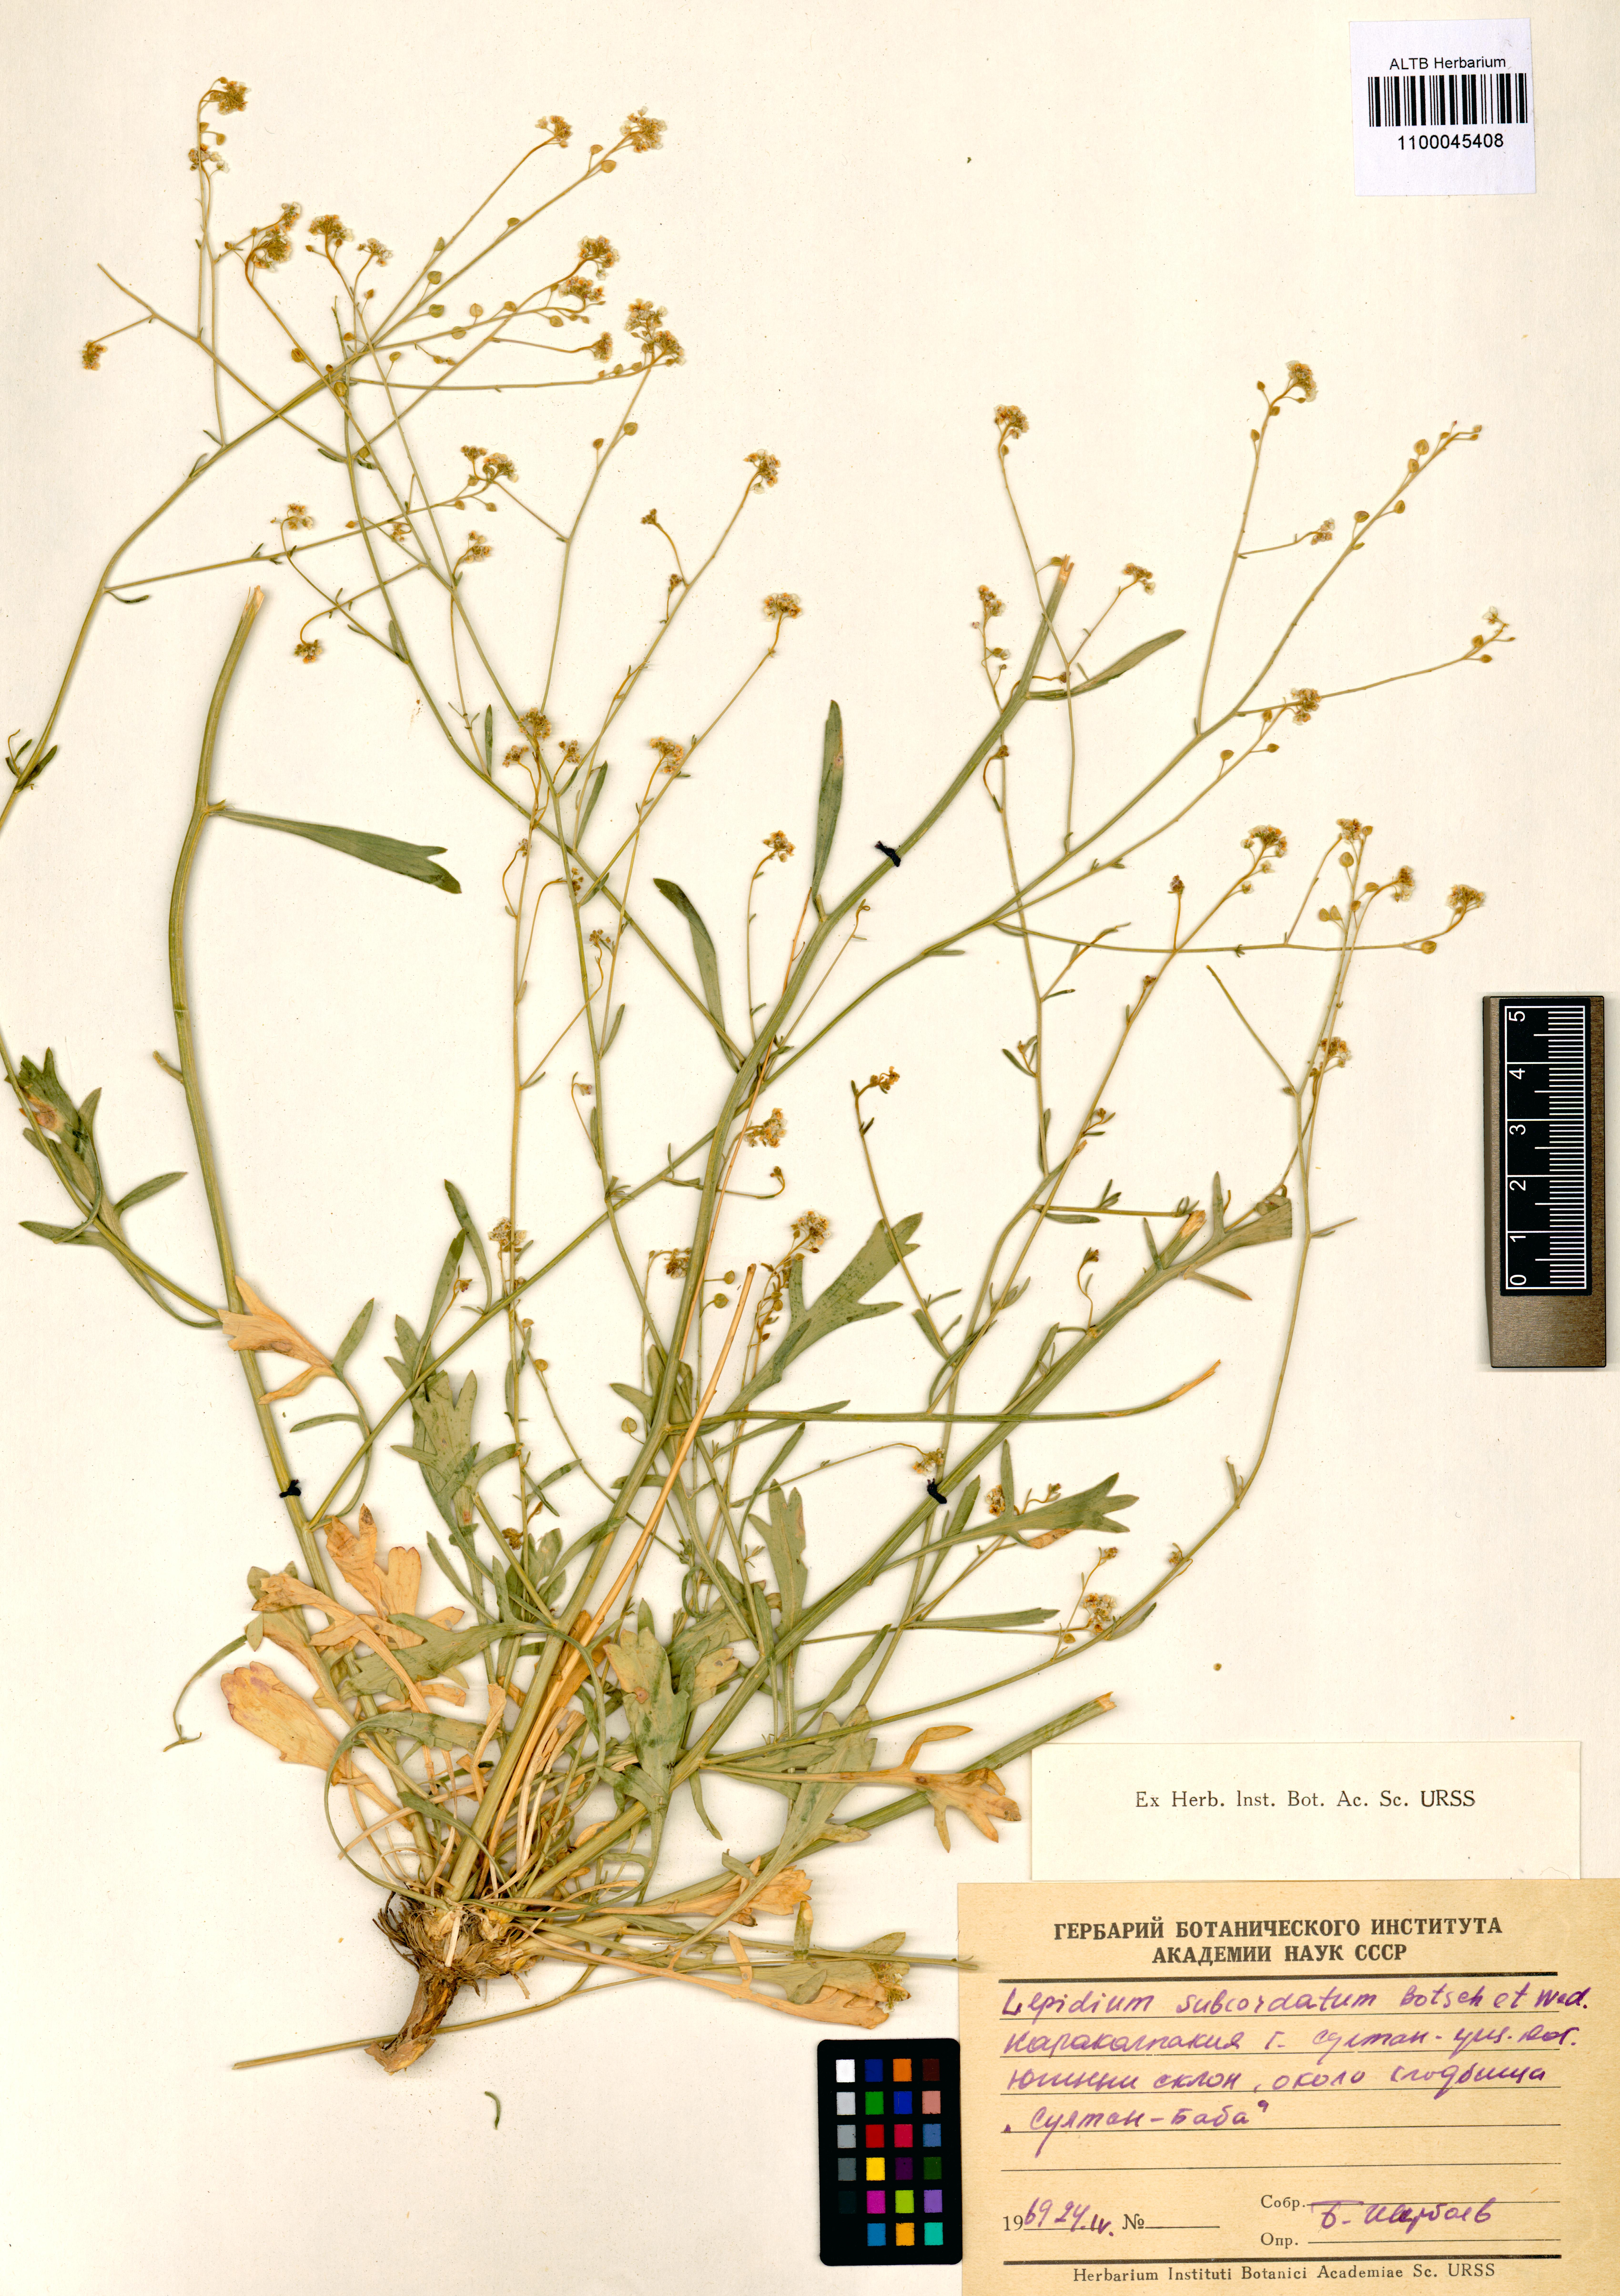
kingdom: Plantae
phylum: Tracheophyta
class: Magnoliopsida
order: Brassicales
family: Brassicaceae
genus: Lepidium
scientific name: Lepidium subcordatum
